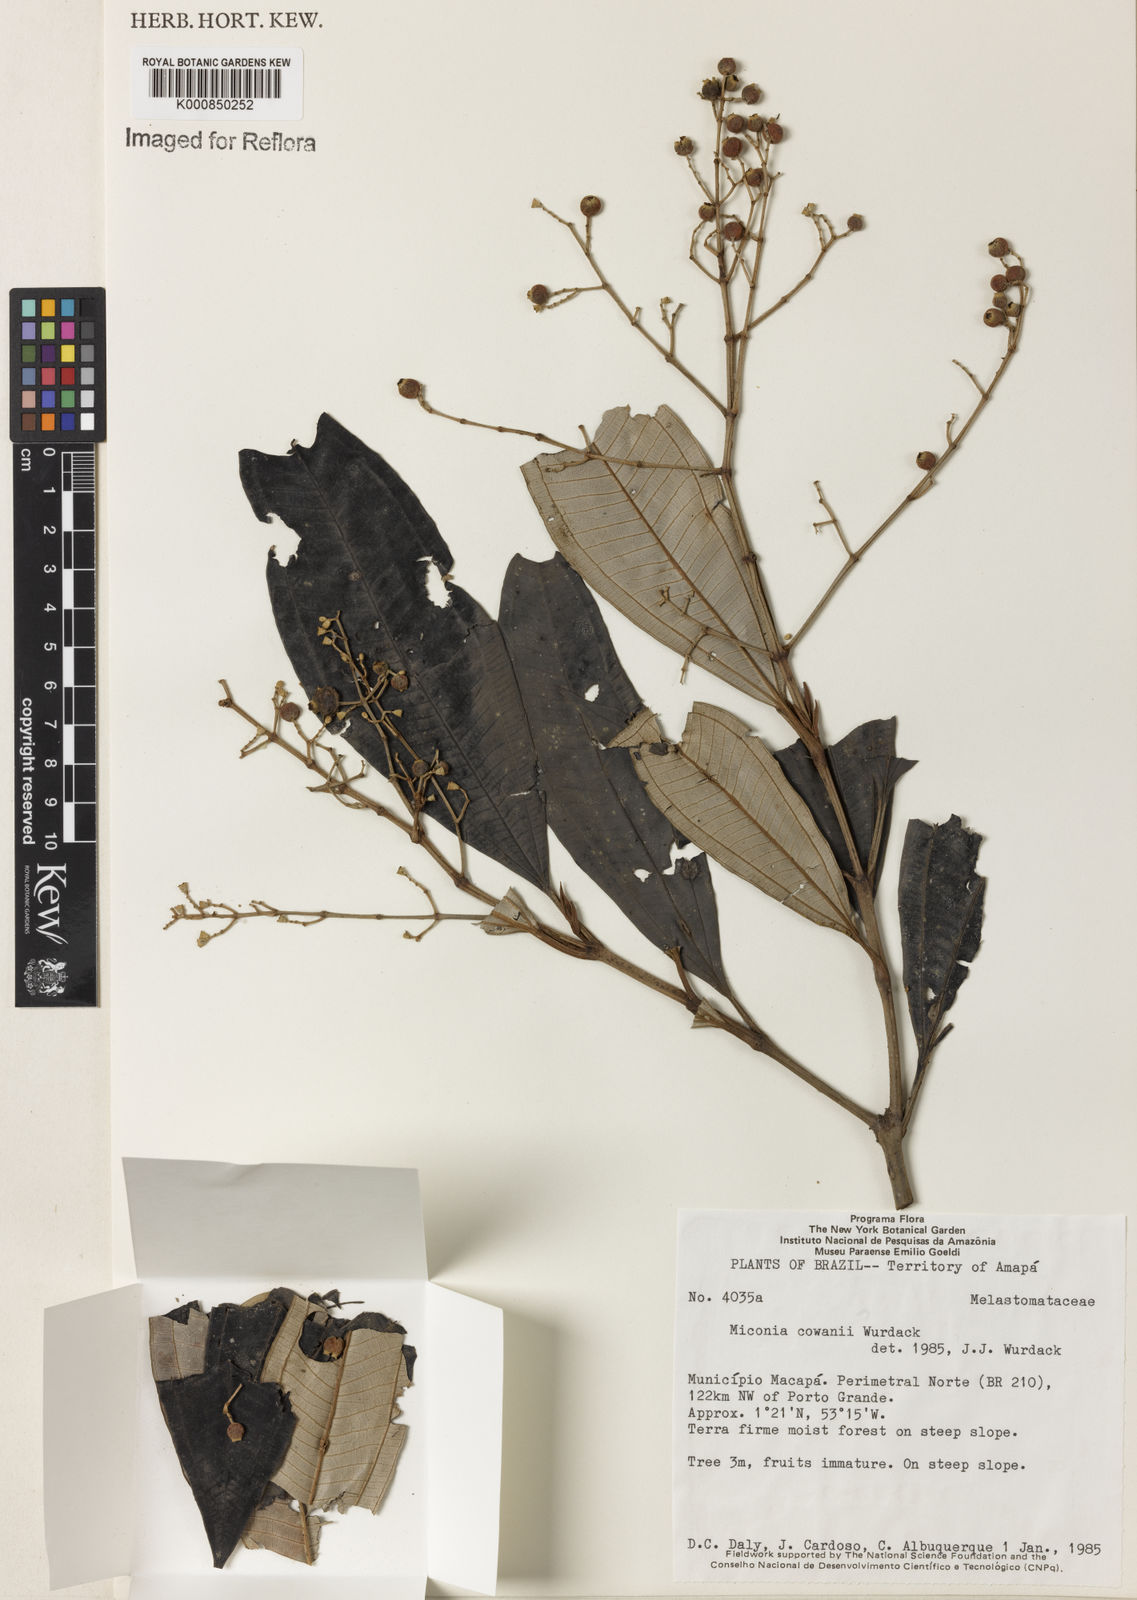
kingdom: Plantae
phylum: Tracheophyta
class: Magnoliopsida
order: Myrtales
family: Melastomataceae
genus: Miconia
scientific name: Miconia cowanii
